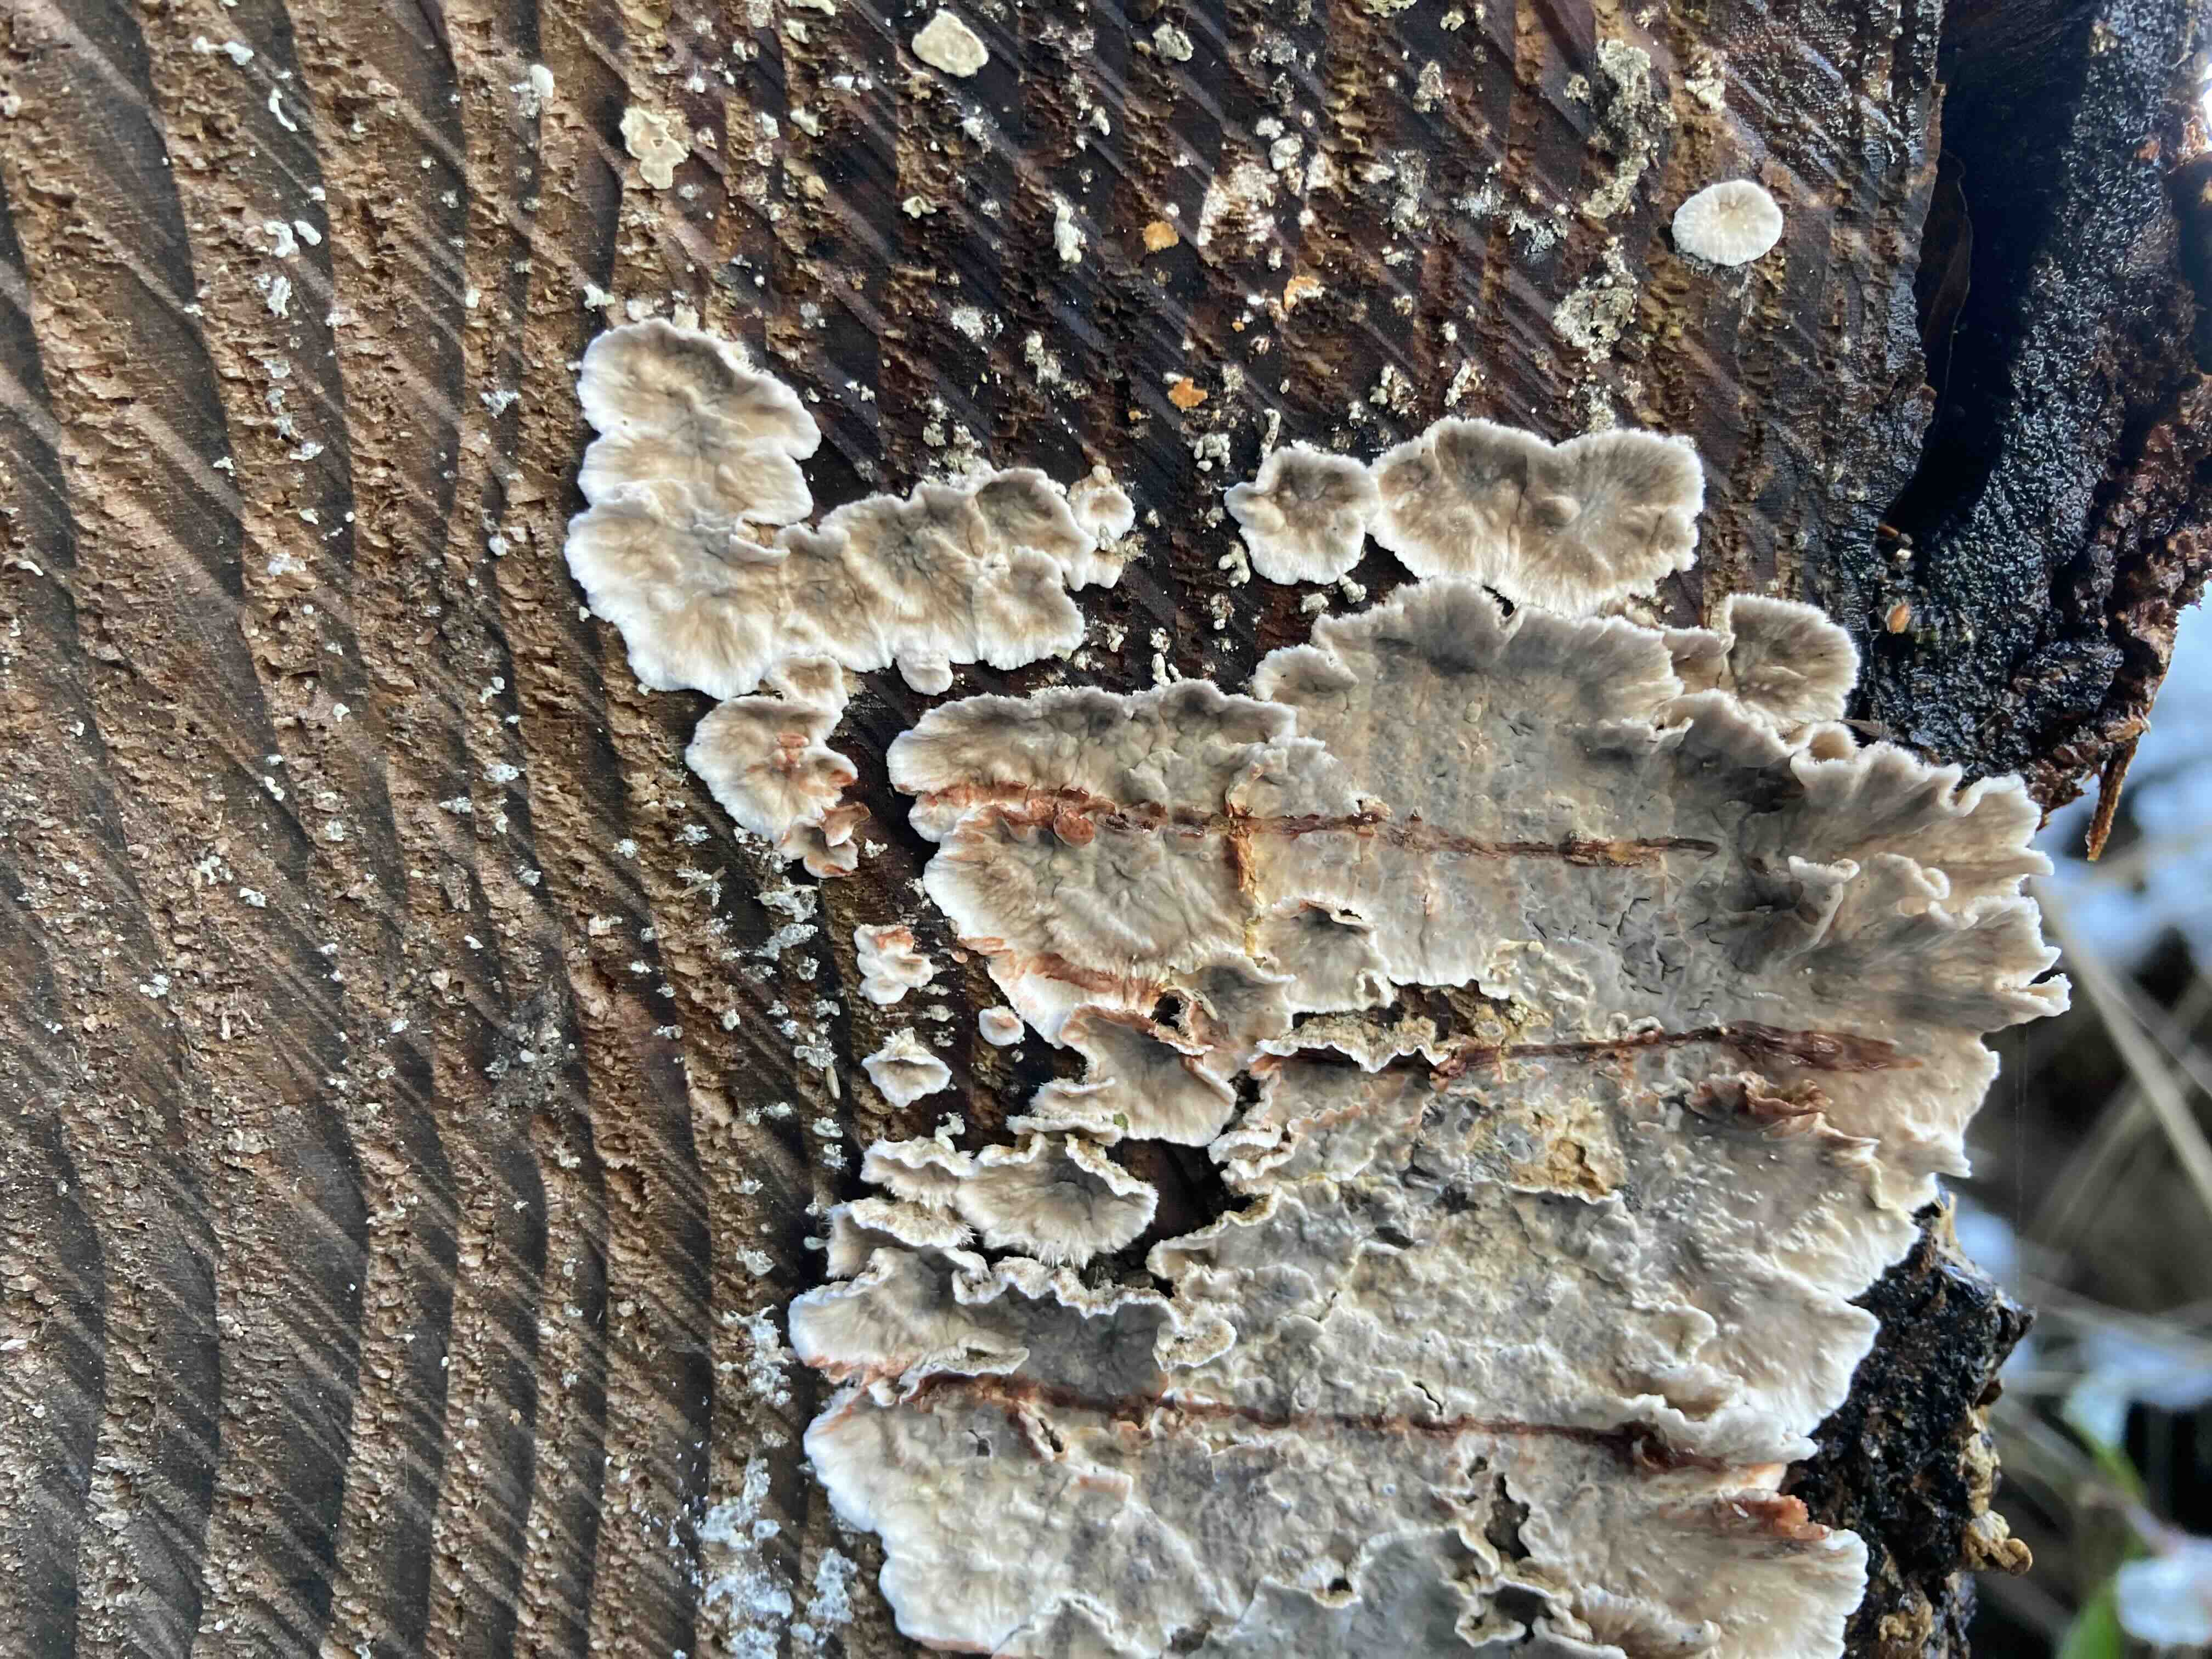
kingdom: Fungi
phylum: Basidiomycota
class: Agaricomycetes
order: Russulales
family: Stereaceae
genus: Stereum
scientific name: Stereum sanguinolentum
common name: blødende lædersvamp
